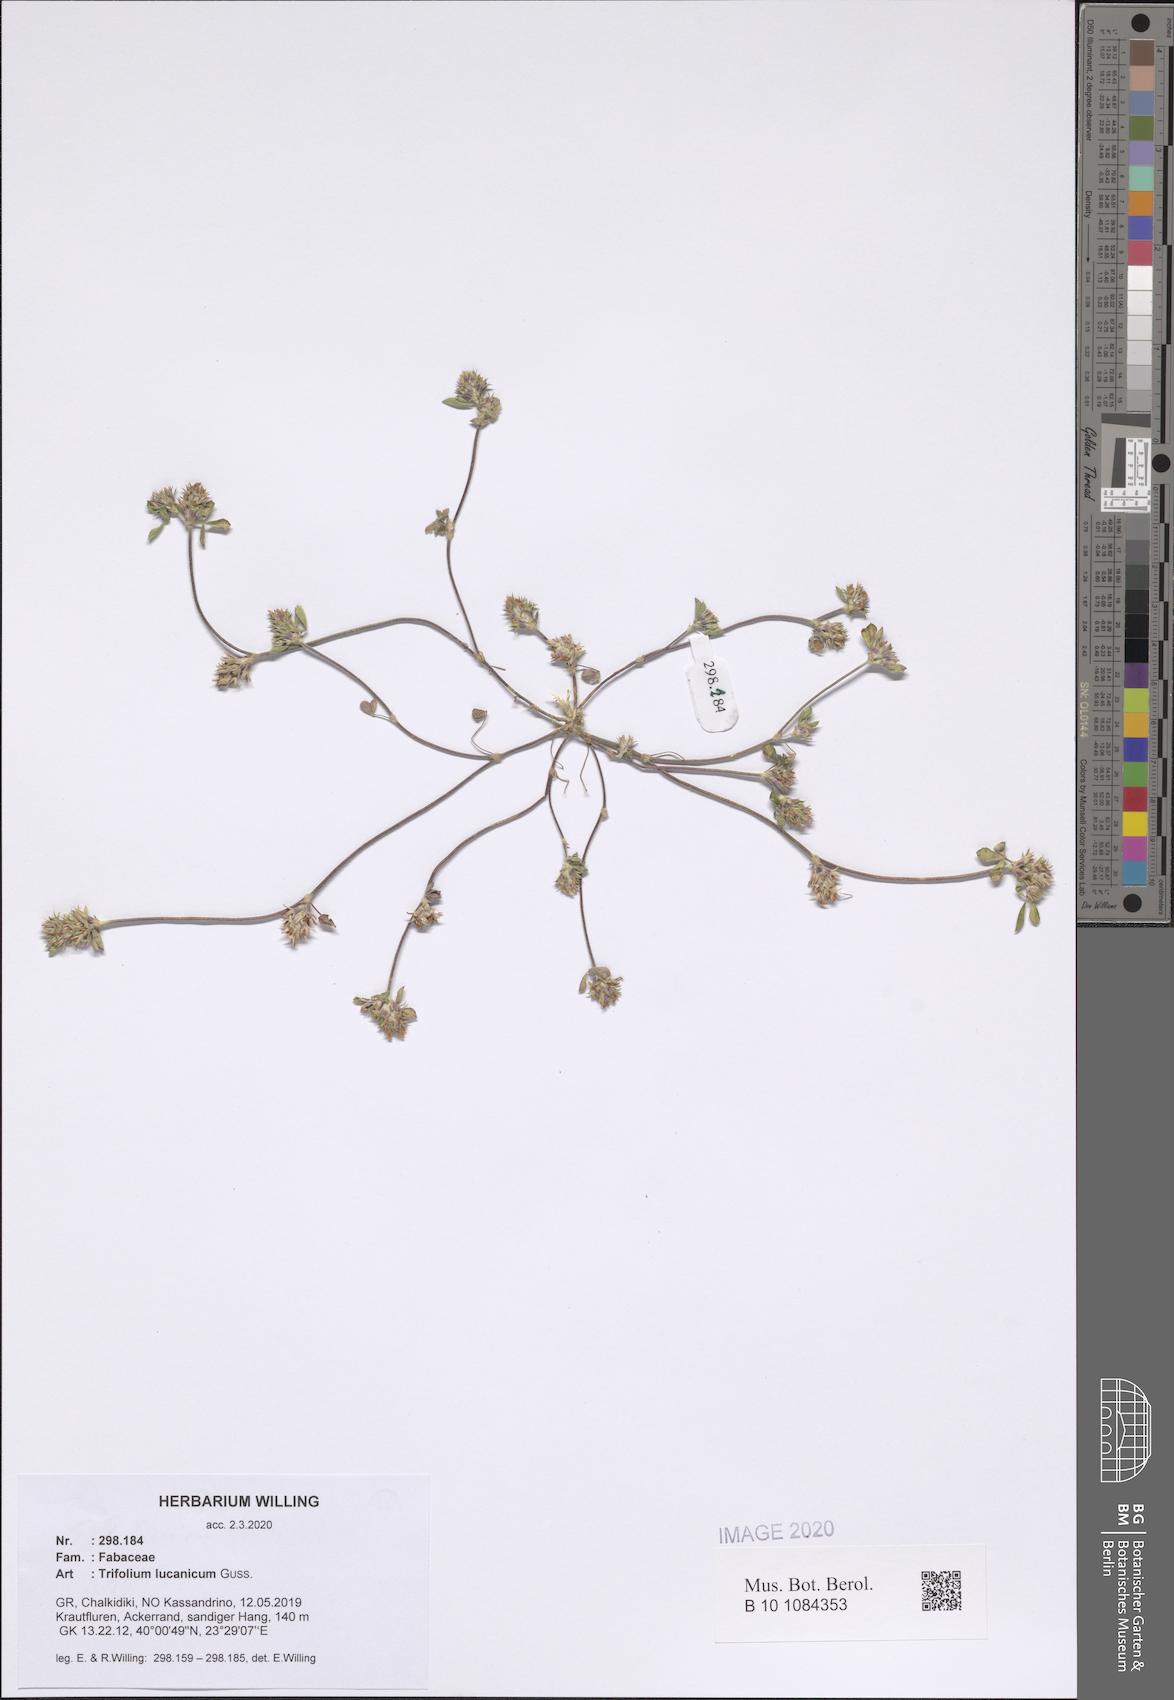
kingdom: Plantae
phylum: Tracheophyta
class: Magnoliopsida
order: Fabales
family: Fabaceae
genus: Trifolium
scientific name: Trifolium lucanicum
